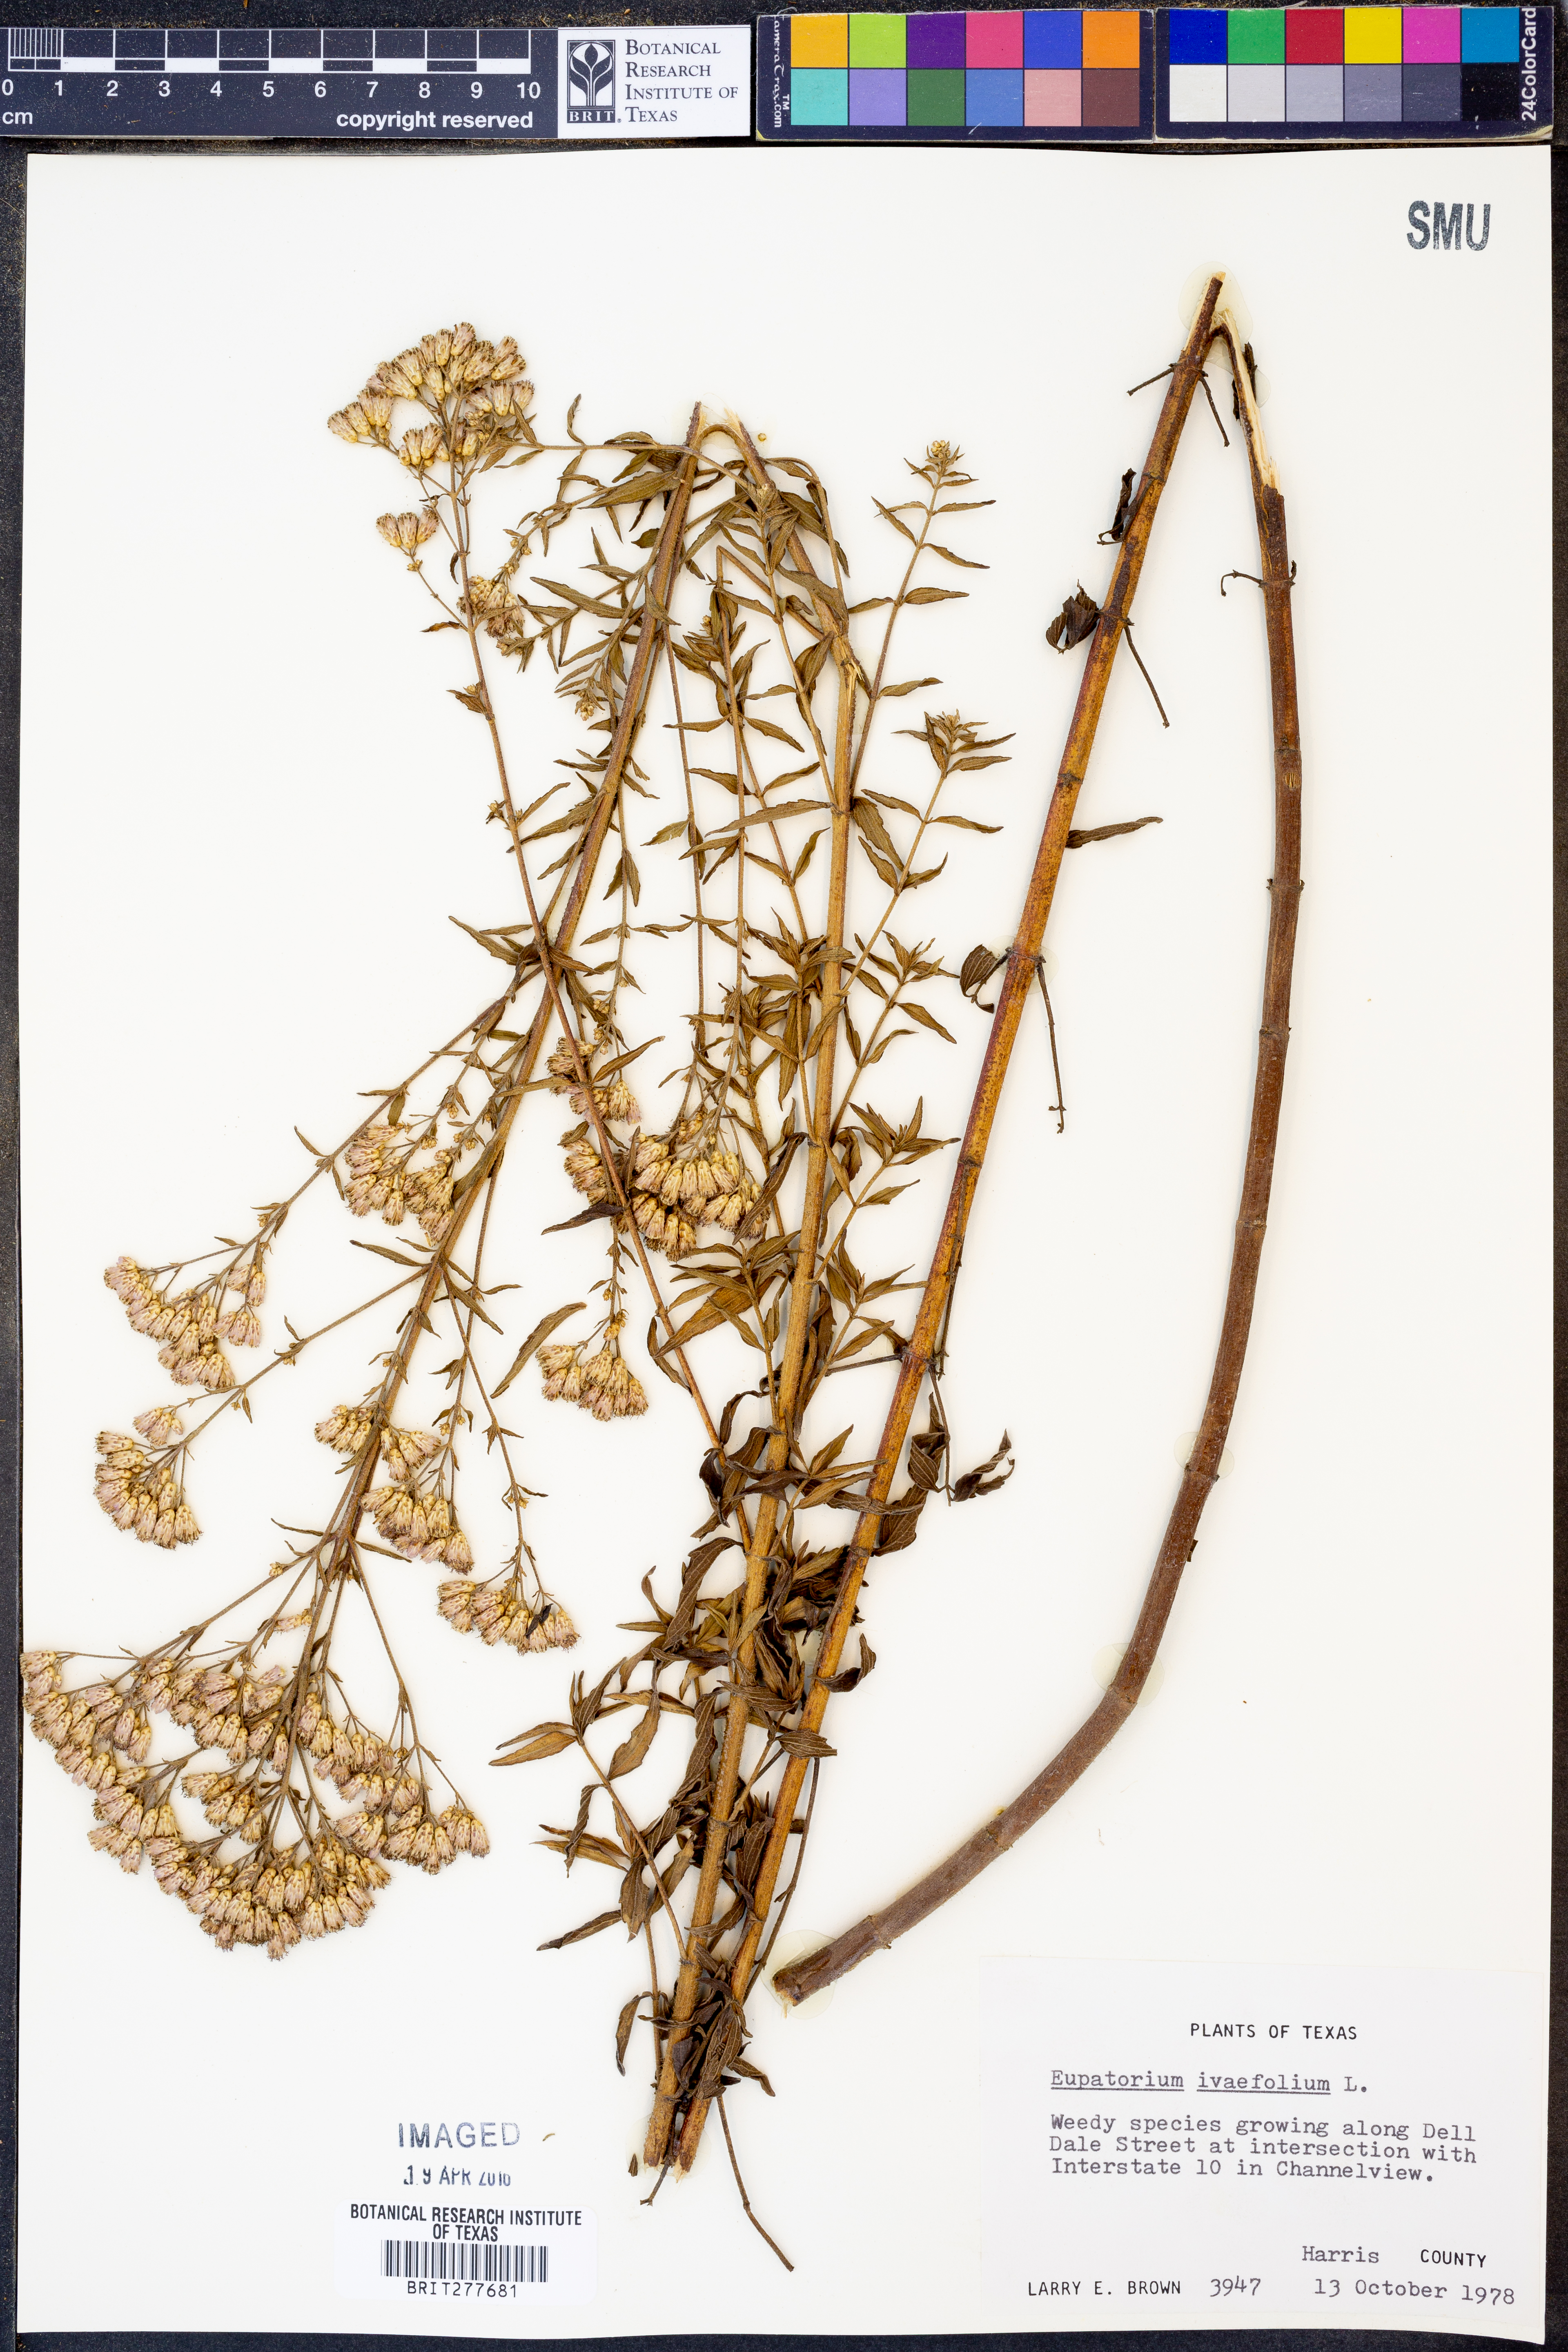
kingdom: Plantae
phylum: Tracheophyta
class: Magnoliopsida
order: Asterales
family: Asteraceae
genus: Chromolaena
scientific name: Chromolaena ivaefolia
